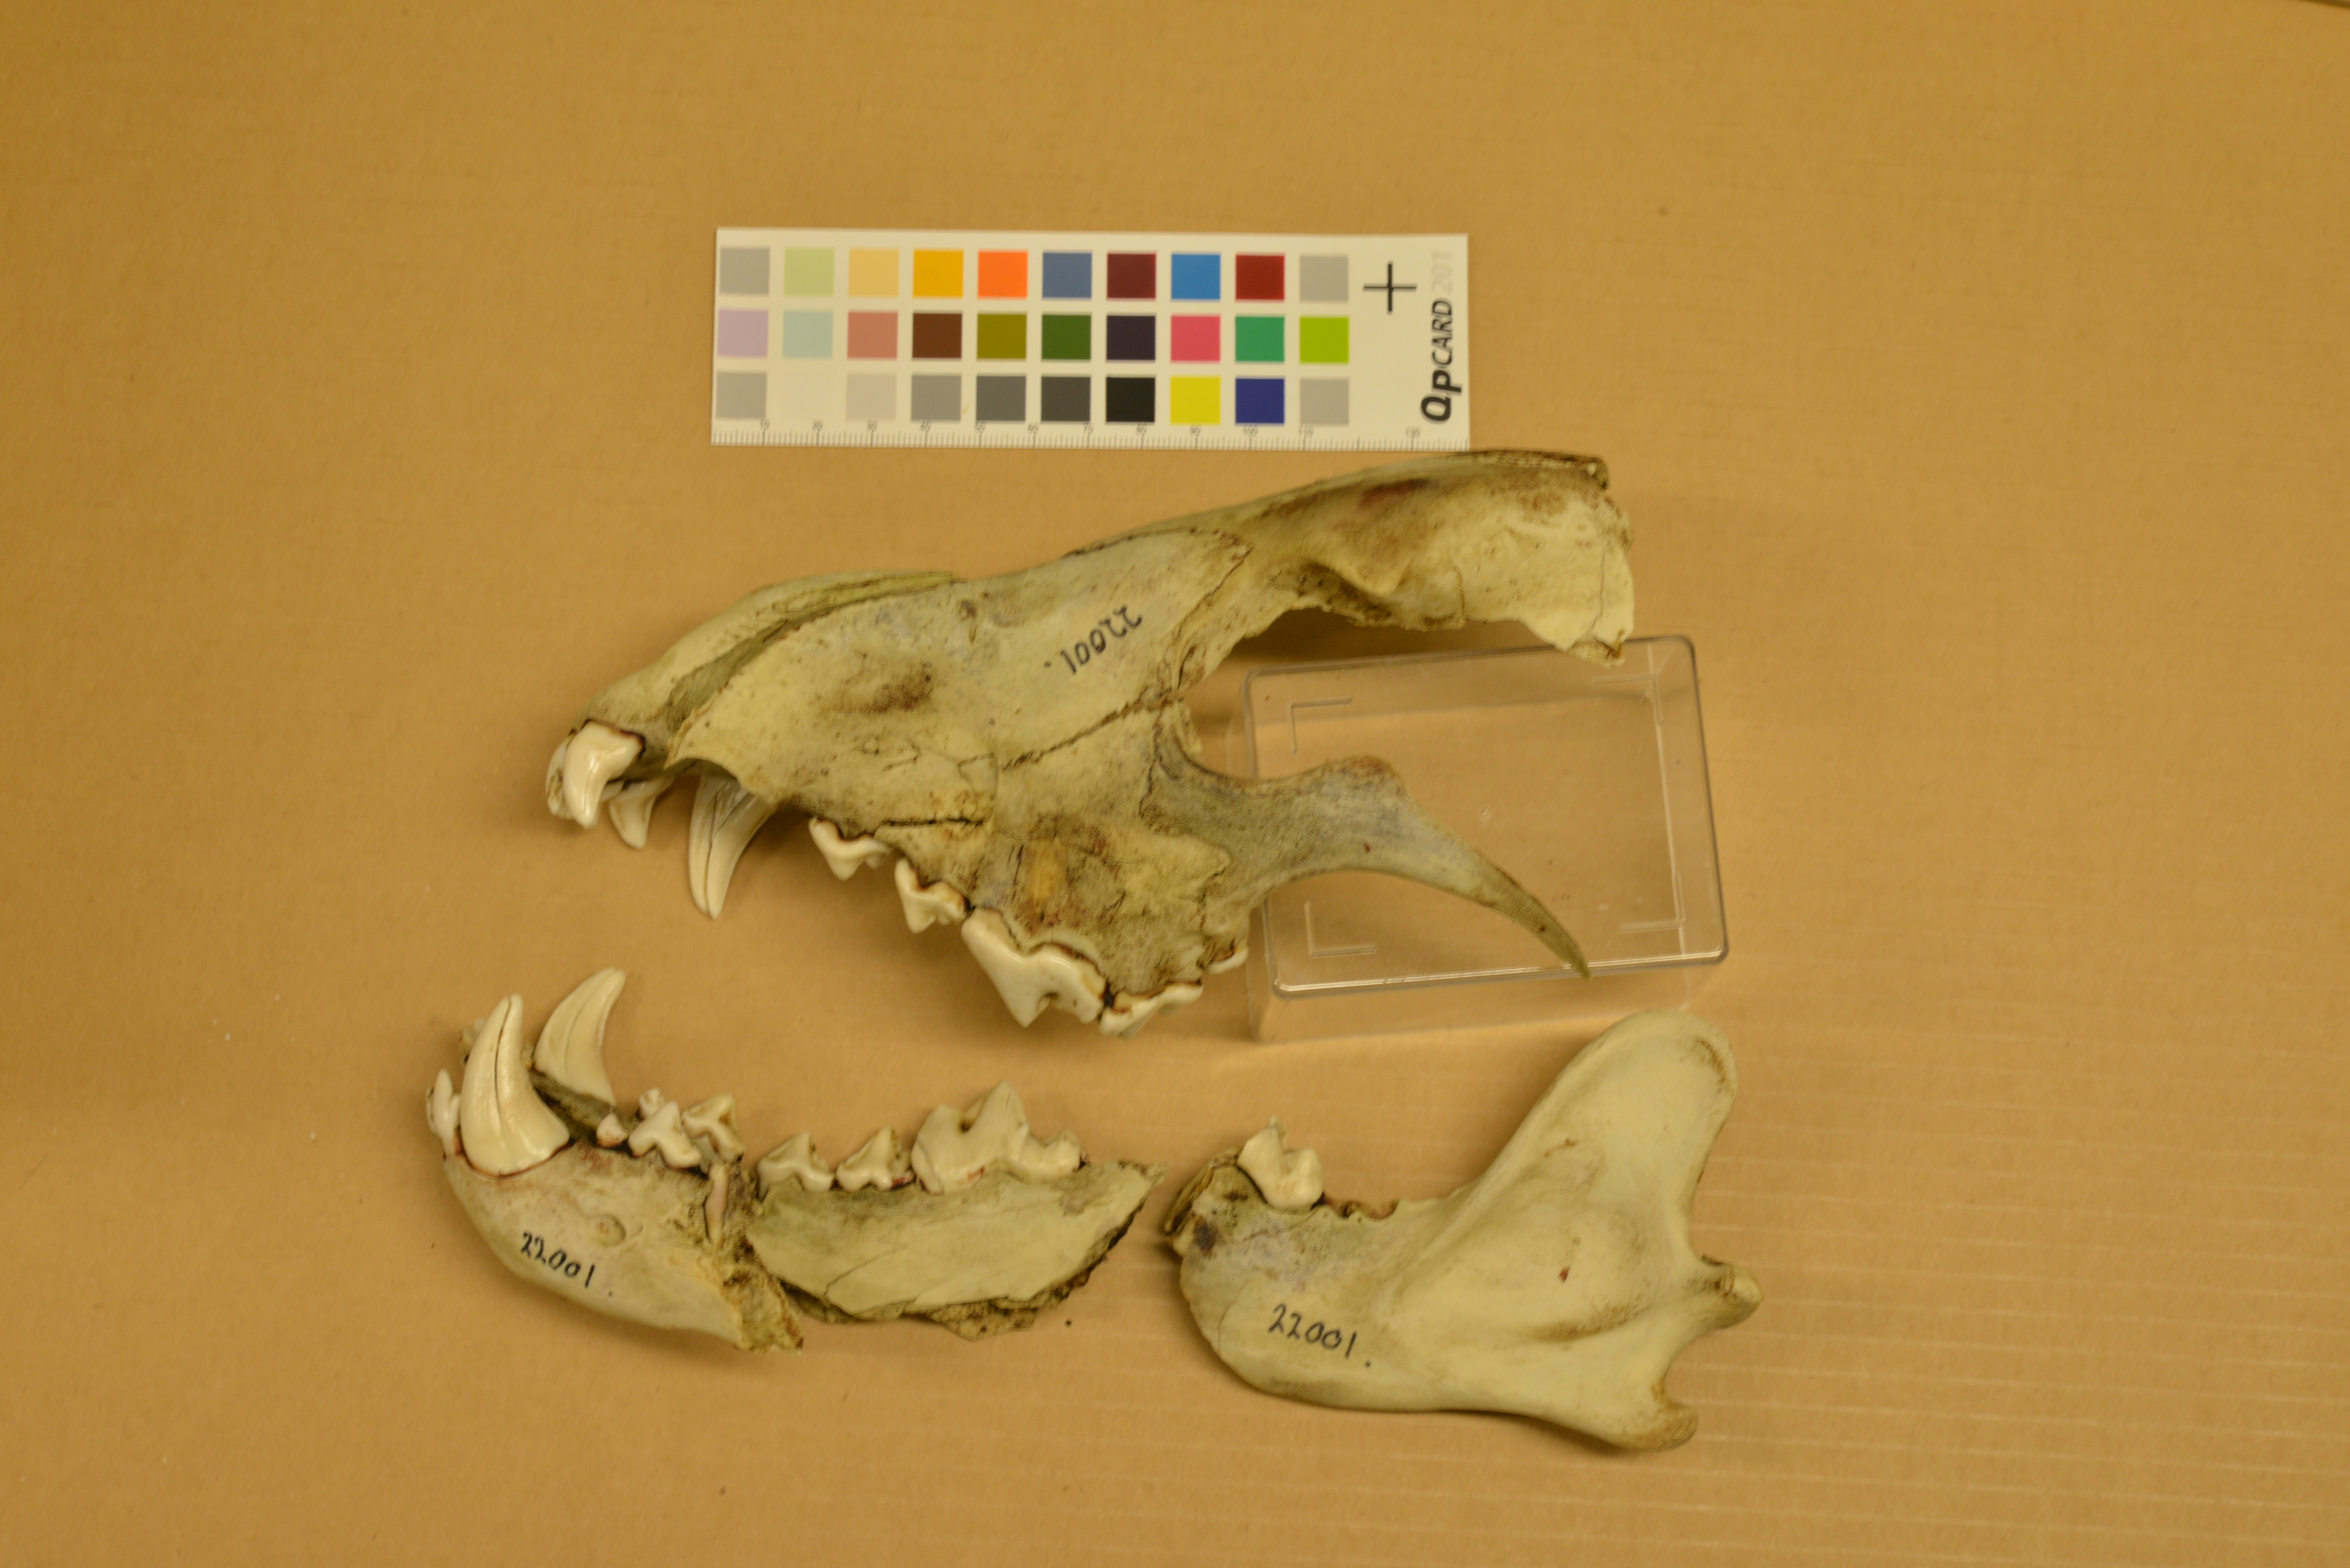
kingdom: Animalia
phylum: Chordata
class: Mammalia
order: Carnivora
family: Canidae
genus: Canis
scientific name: Canis lupus
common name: Gray wolf
